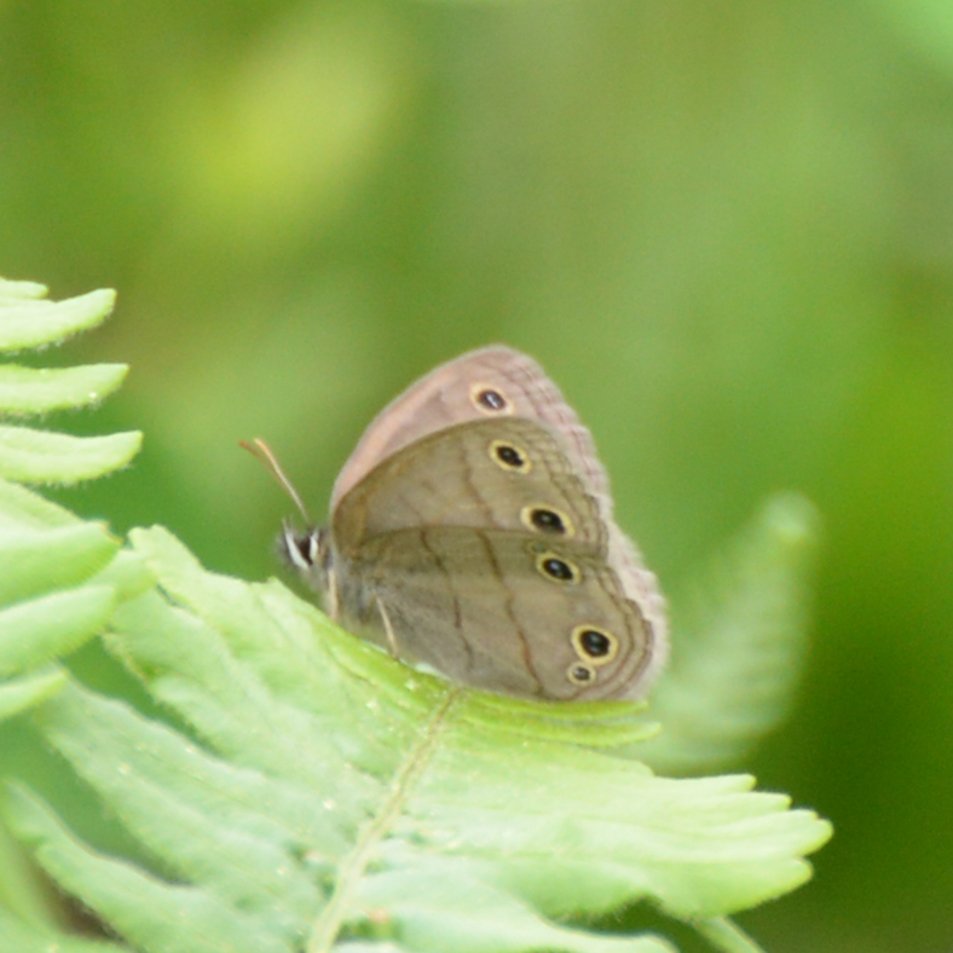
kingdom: Animalia
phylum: Arthropoda
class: Insecta
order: Lepidoptera
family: Nymphalidae
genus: Euptychia
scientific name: Euptychia cymela
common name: Little Wood Satyr
